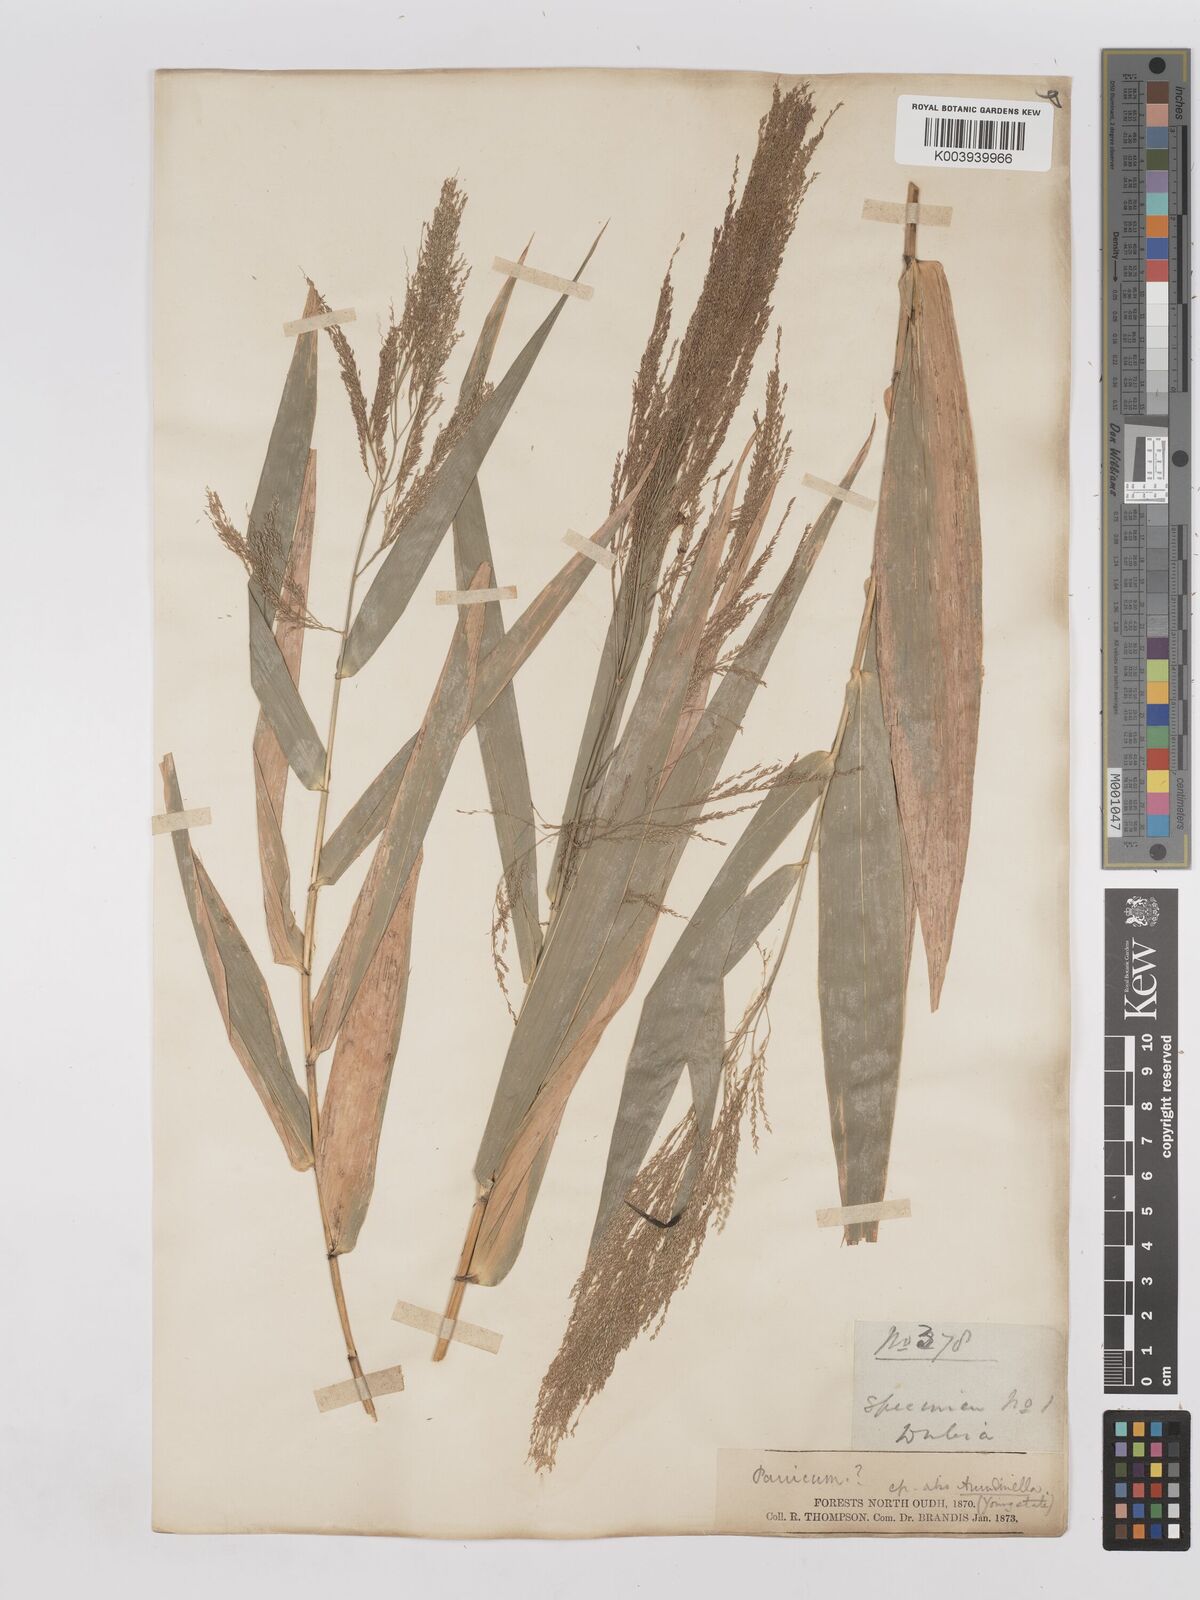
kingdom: Plantae
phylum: Tracheophyta
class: Liliopsida
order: Poales
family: Poaceae
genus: Thysanolaena
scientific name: Thysanolaena latifolia
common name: Tiger grass
